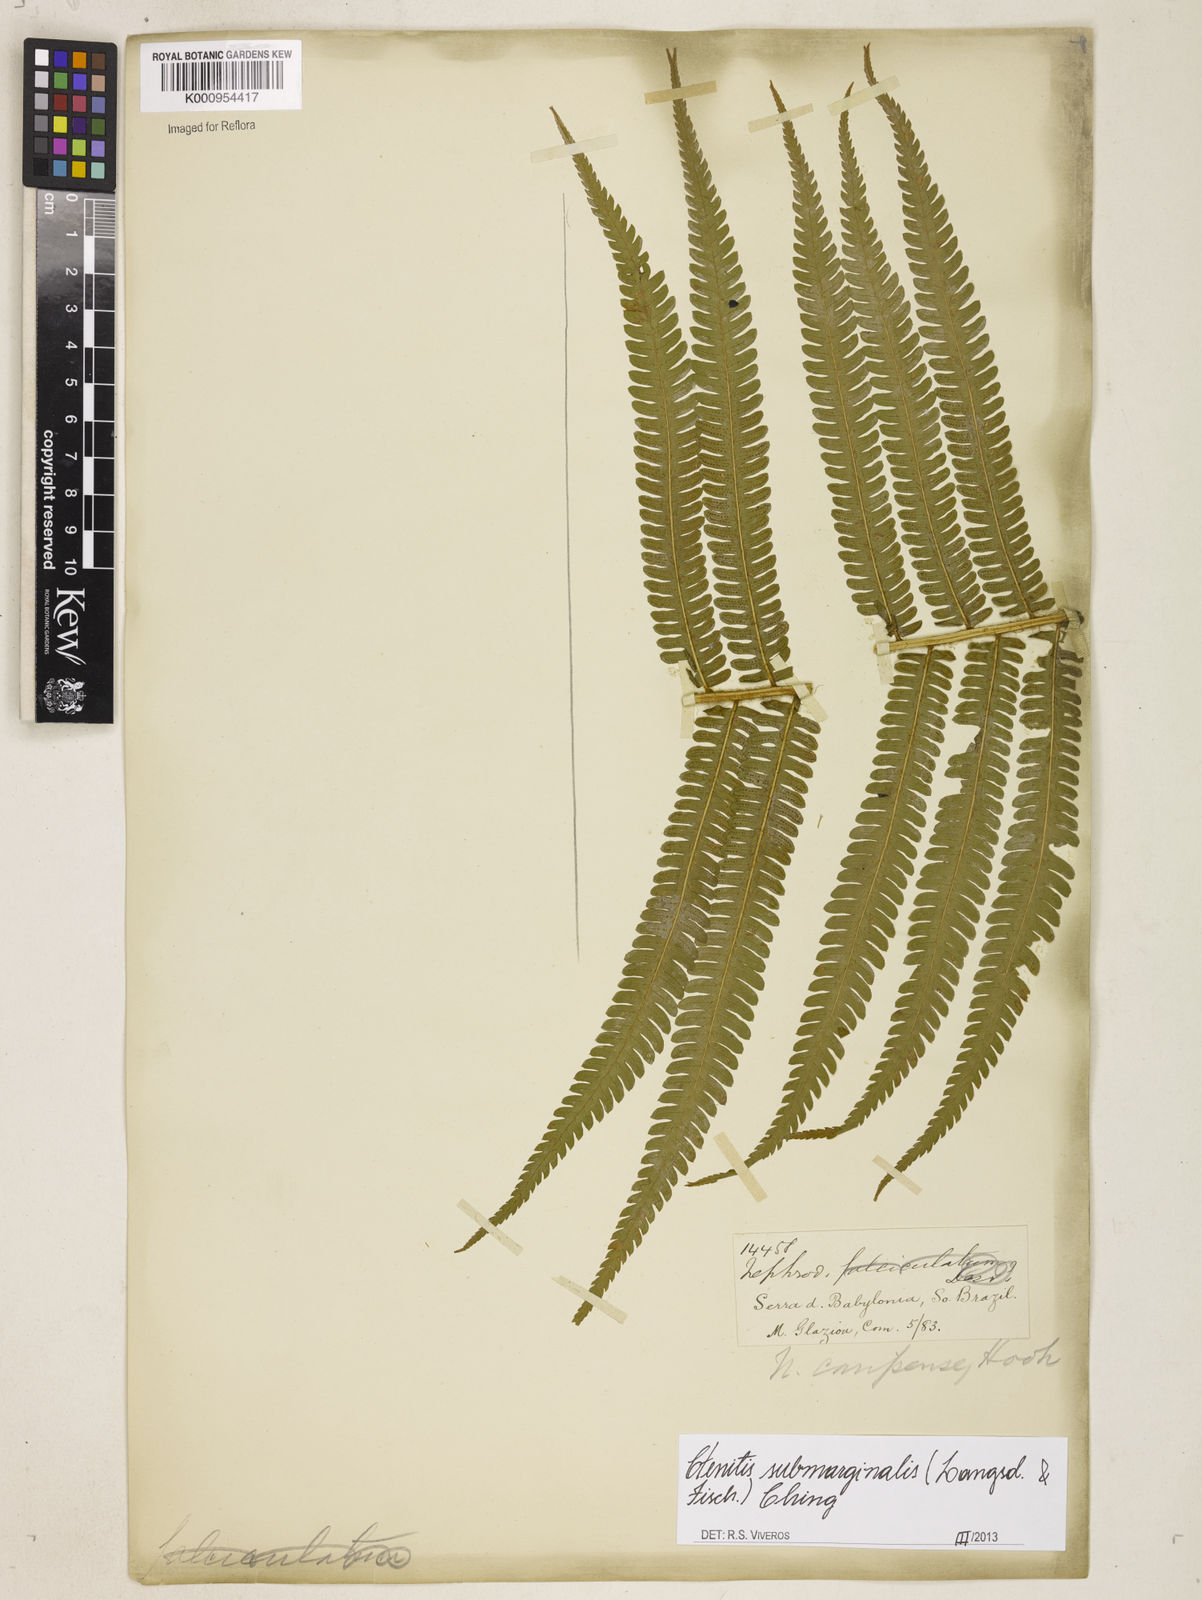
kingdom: Plantae
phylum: Tracheophyta
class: Polypodiopsida
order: Polypodiales
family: Dryopteridaceae
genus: Ctenitis
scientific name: Ctenitis submarginalis
